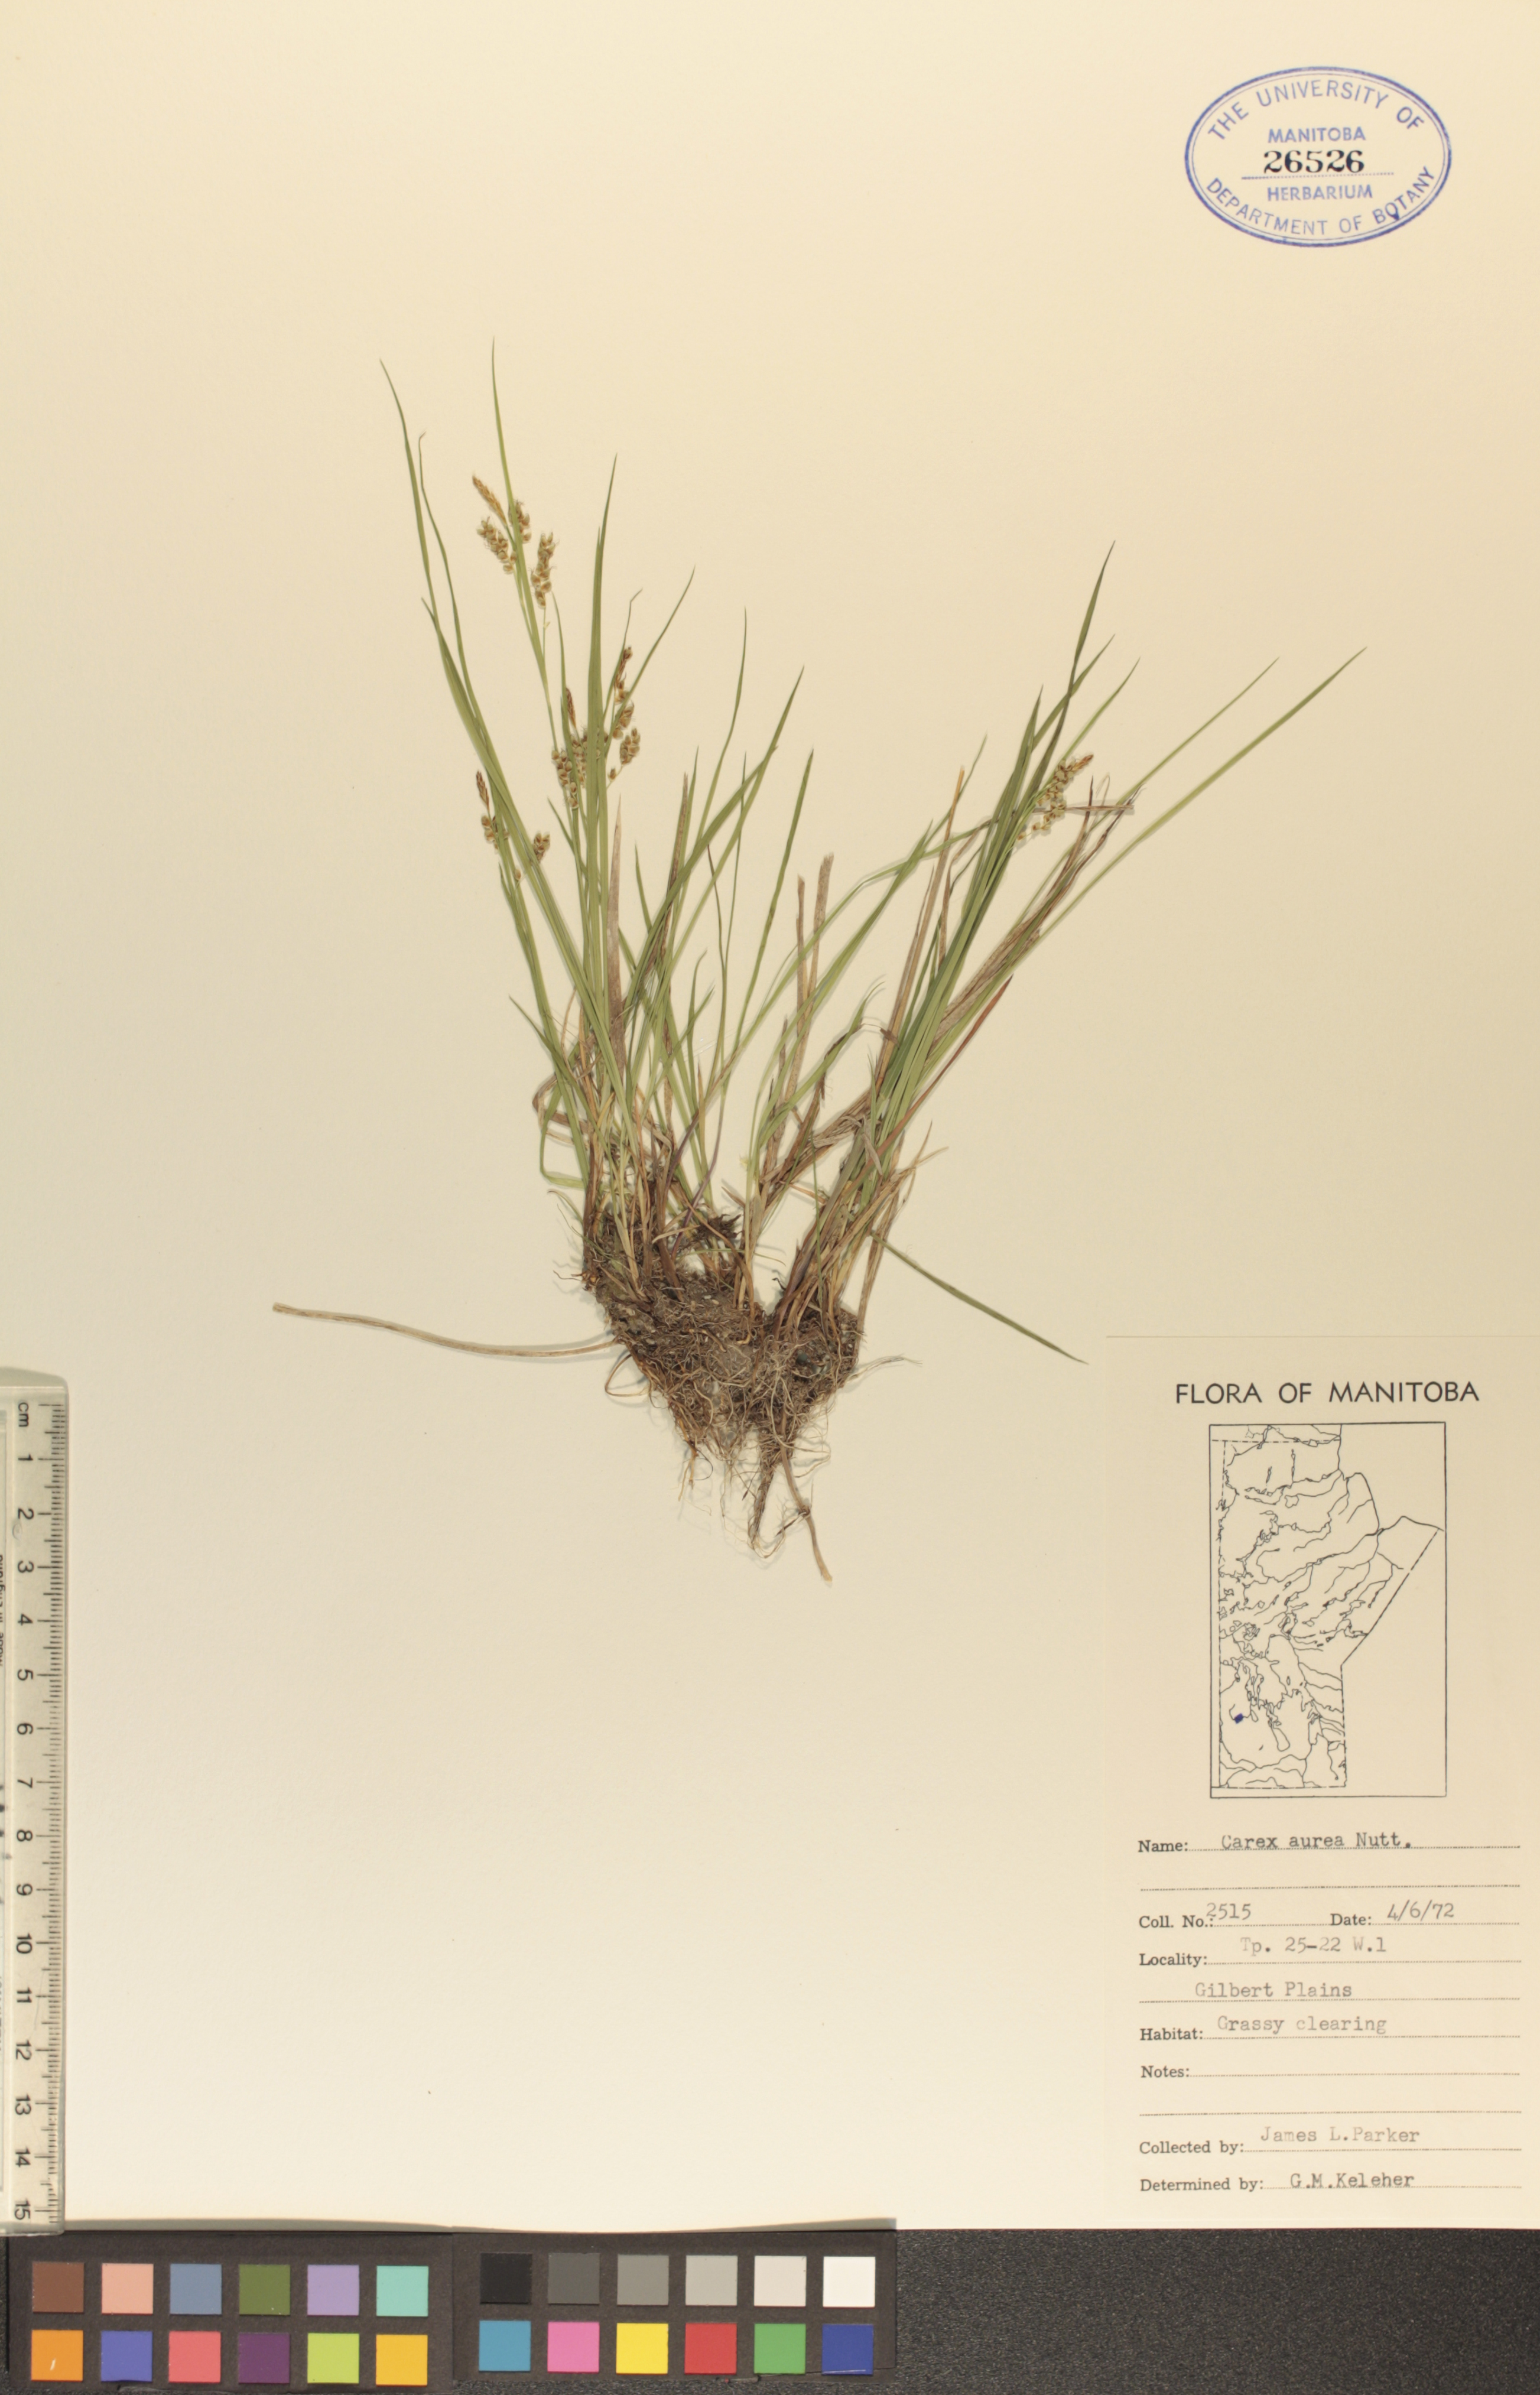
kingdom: Plantae
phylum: Tracheophyta
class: Liliopsida
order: Poales
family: Cyperaceae
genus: Carex
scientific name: Carex aurea
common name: Golden sedge
